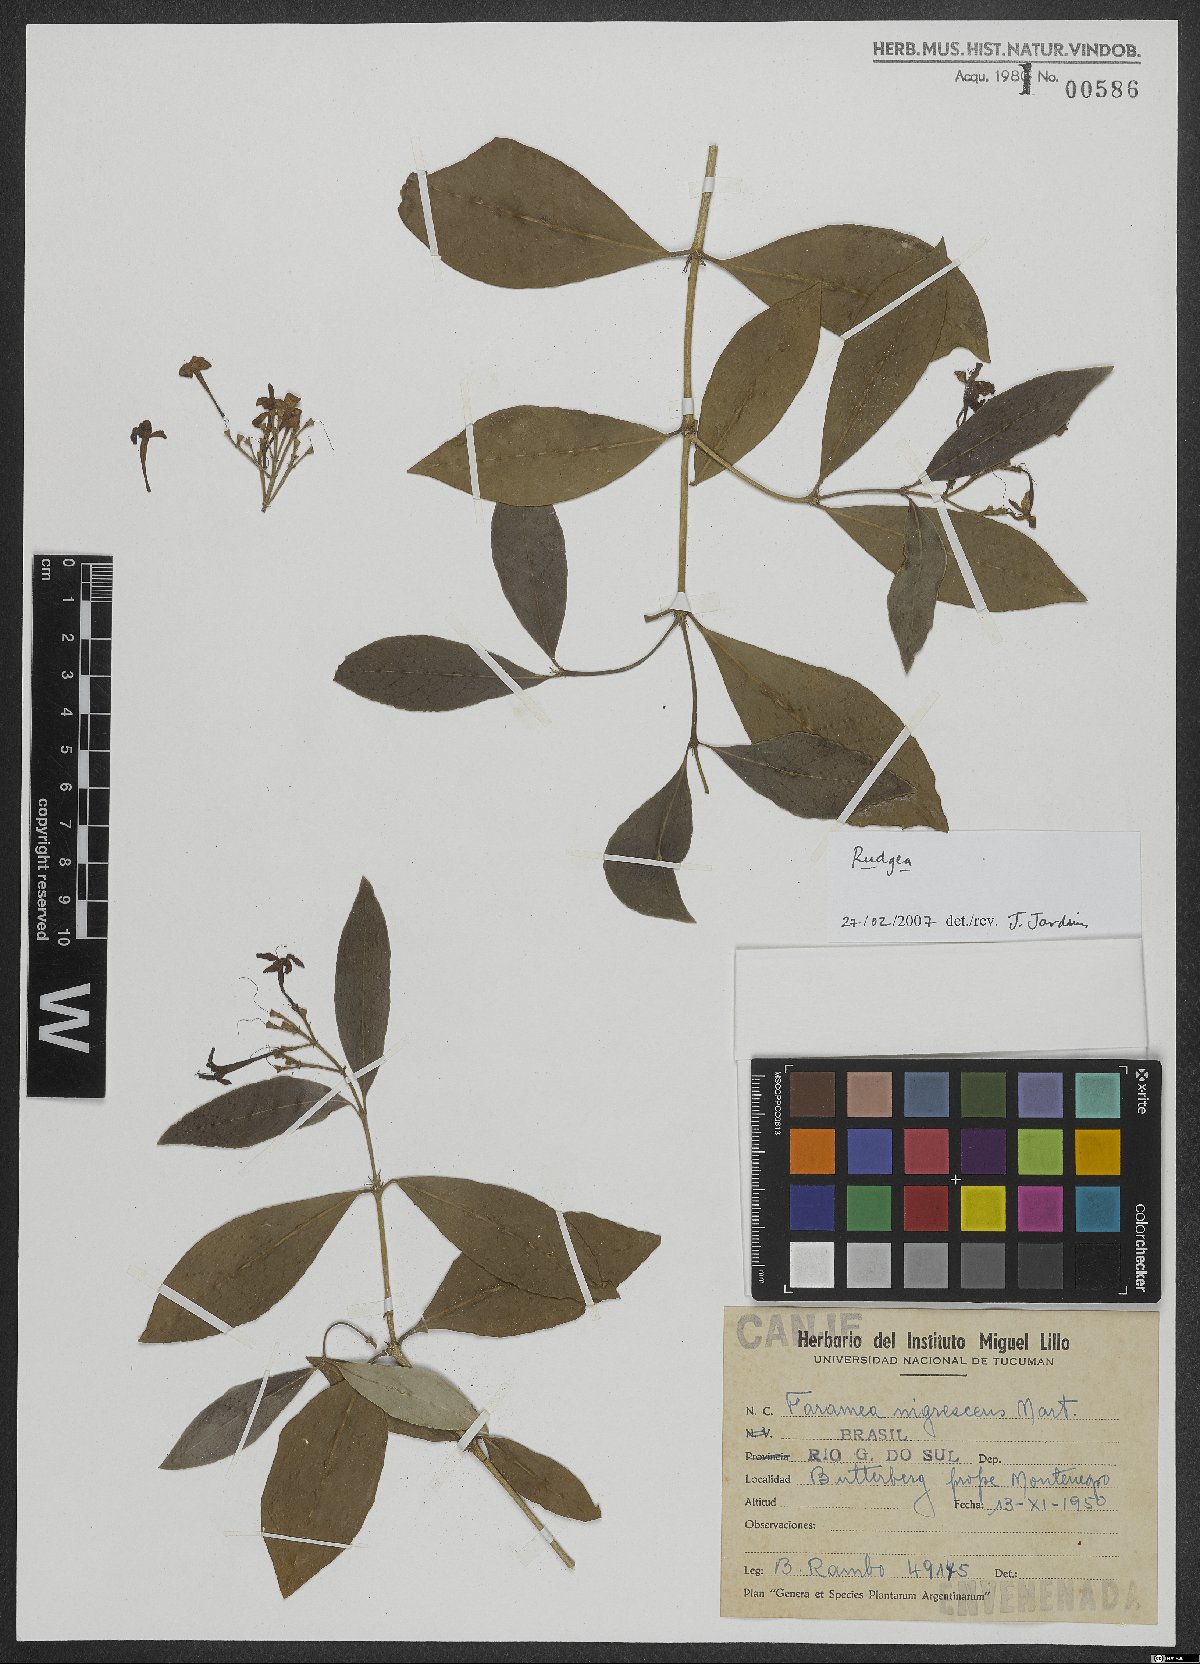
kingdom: Plantae
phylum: Tracheophyta
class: Magnoliopsida
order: Gentianales
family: Rubiaceae
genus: Rudgea
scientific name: Rudgea
